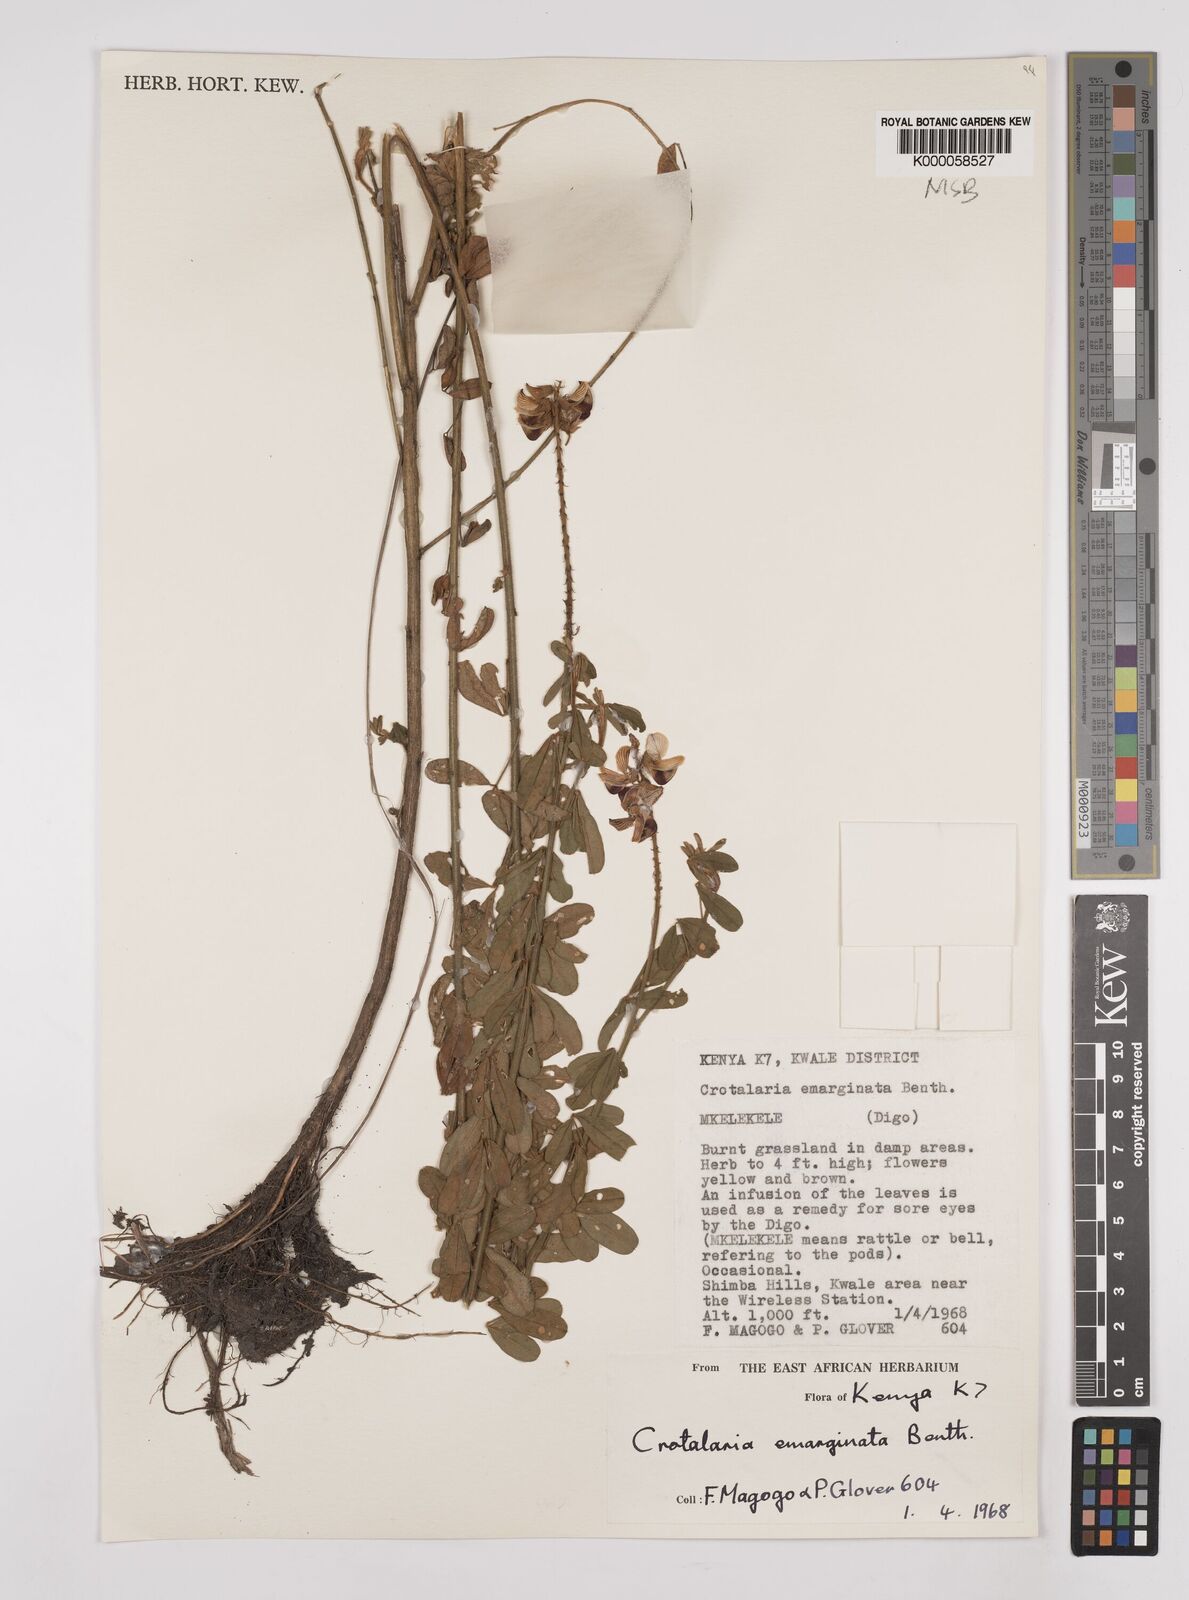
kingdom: Plantae
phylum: Tracheophyta
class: Magnoliopsida
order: Fabales
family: Fabaceae
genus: Crotalaria
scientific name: Crotalaria emarginata
